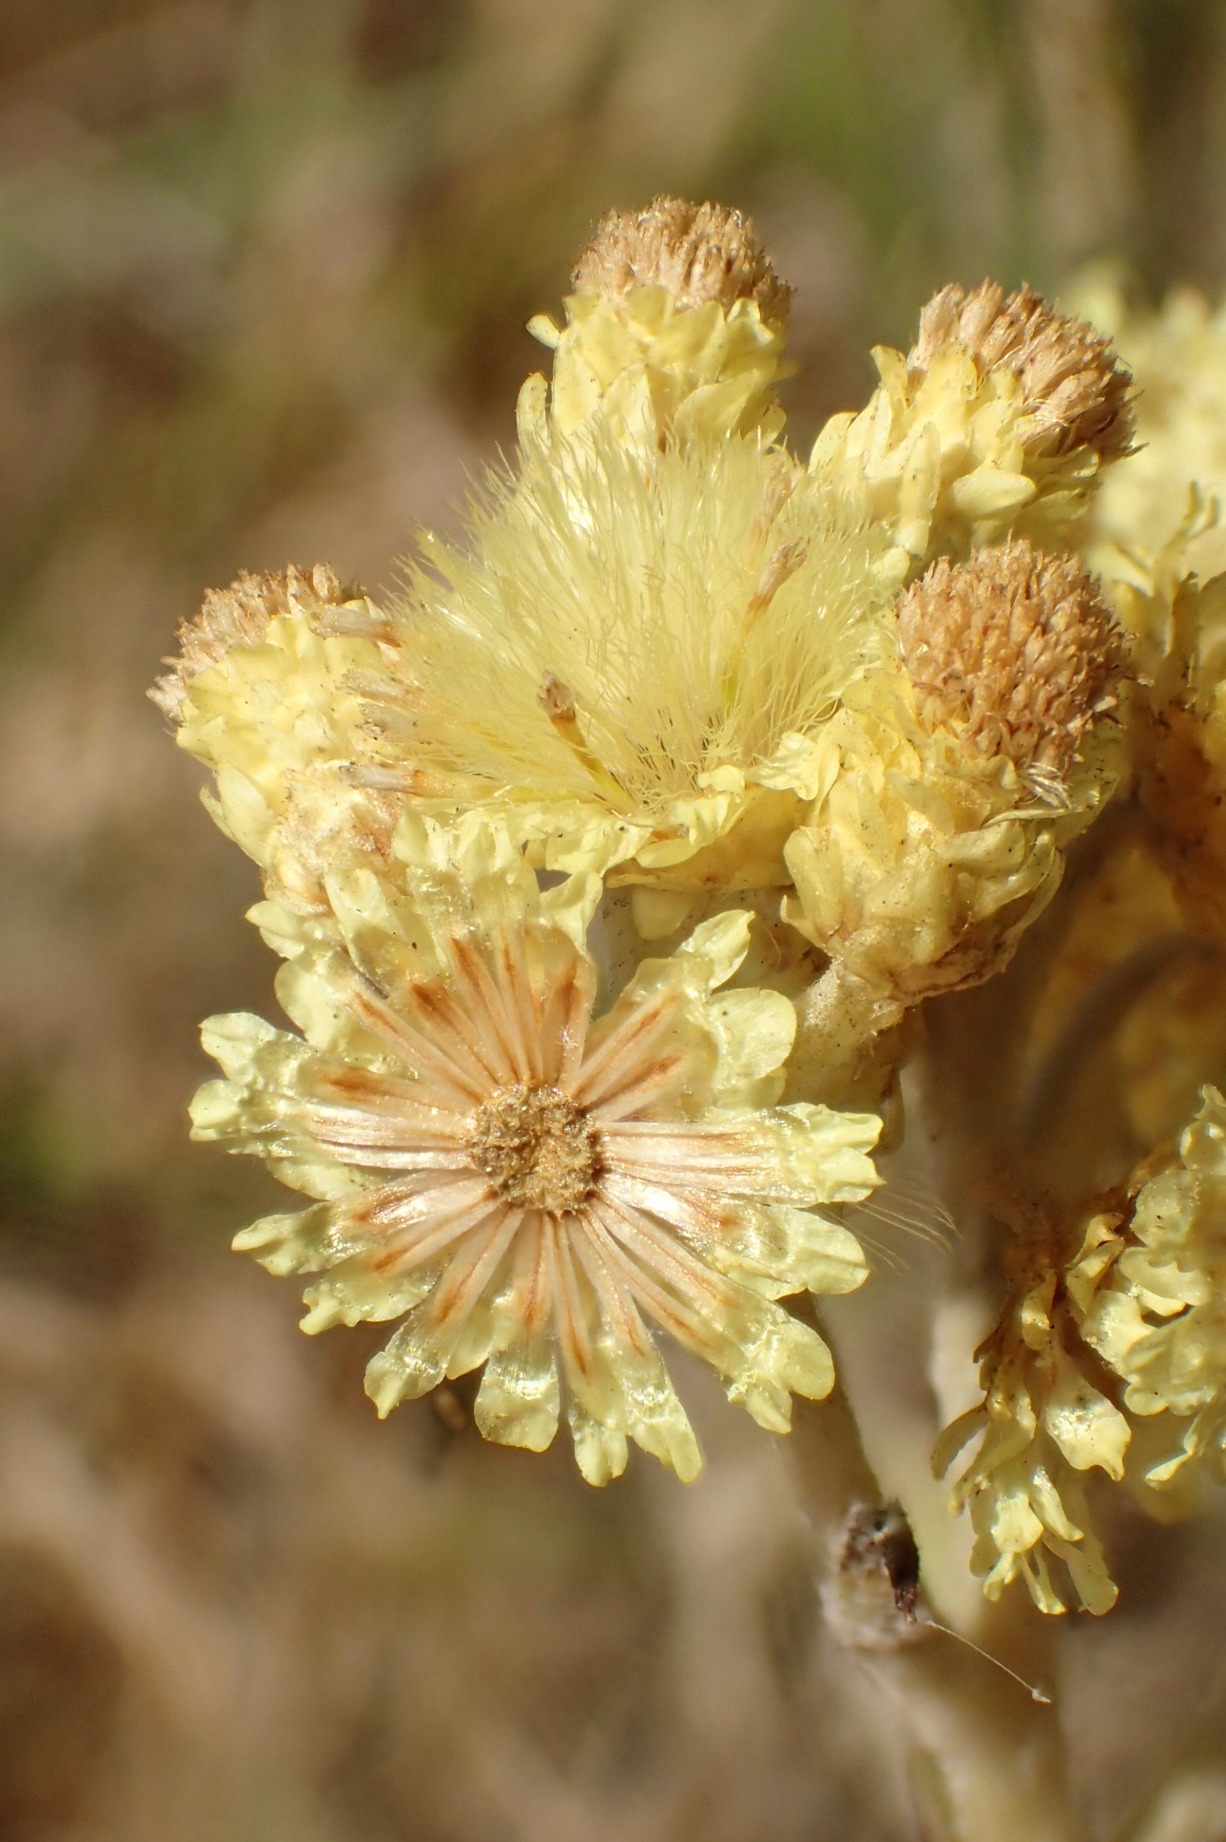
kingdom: Plantae
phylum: Tracheophyta
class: Magnoliopsida
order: Asterales
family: Asteraceae
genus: Helichrysum
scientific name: Helichrysum arenarium
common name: Gul evighedsblomst
